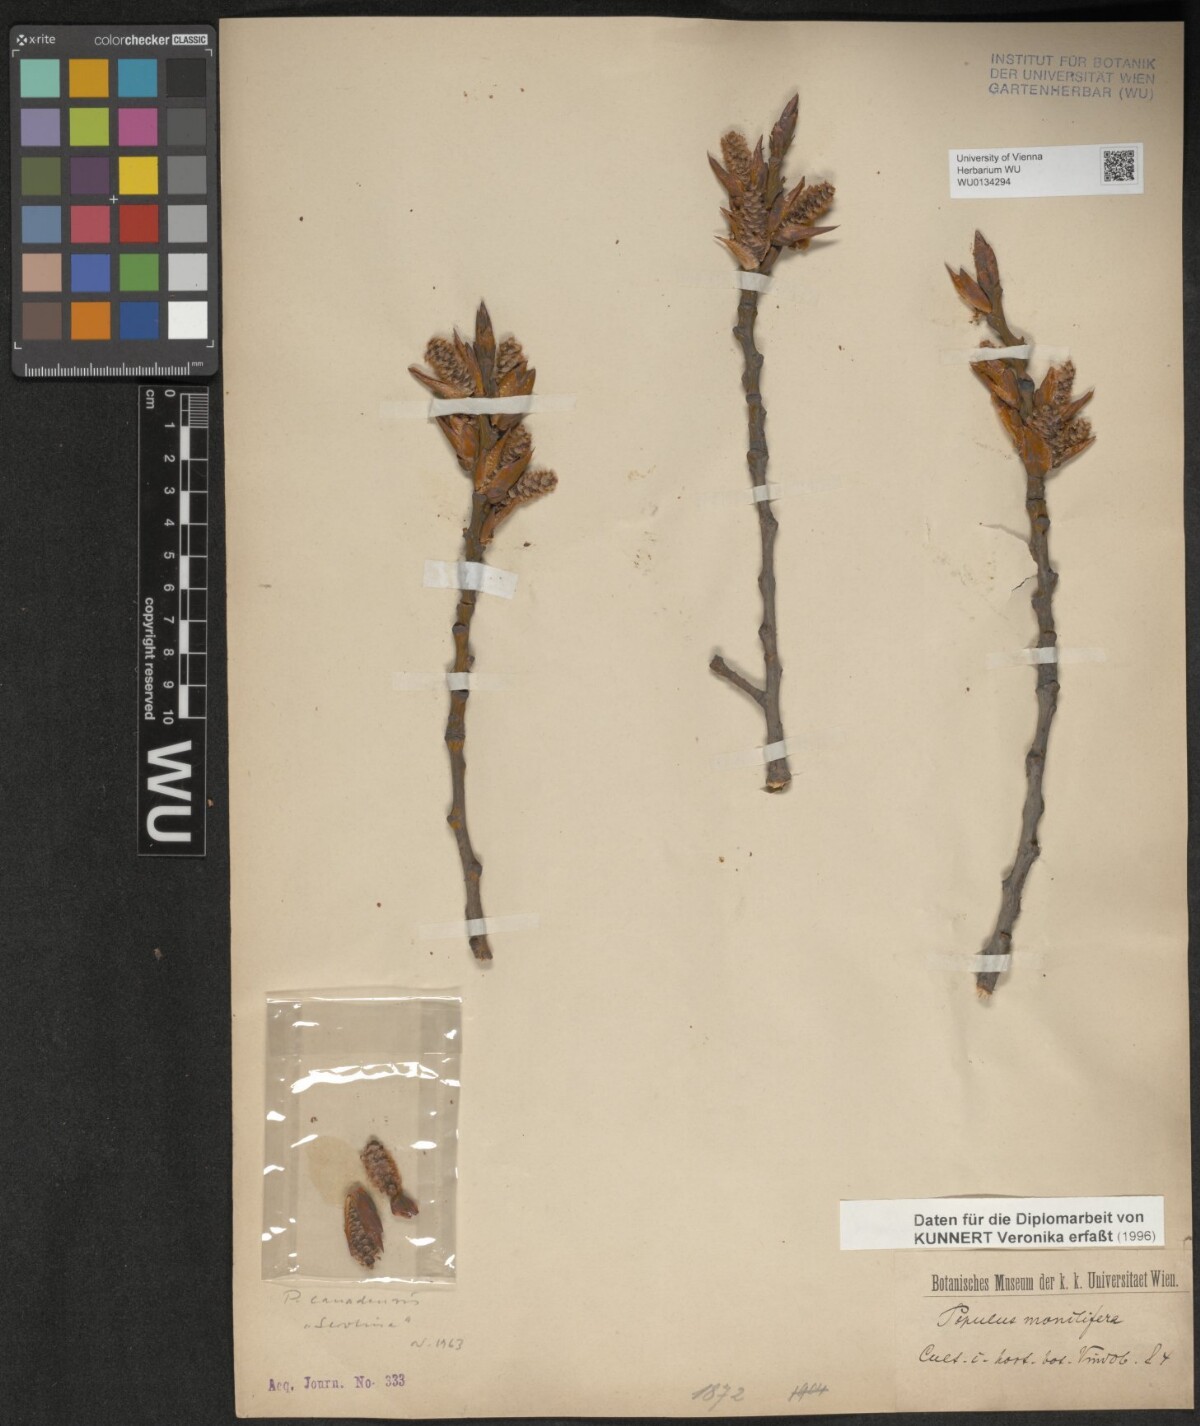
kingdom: Plantae
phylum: Tracheophyta
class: Magnoliopsida
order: Malpighiales
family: Salicaceae
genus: Populus
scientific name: Populus deltoides
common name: Eastern cottonwood
